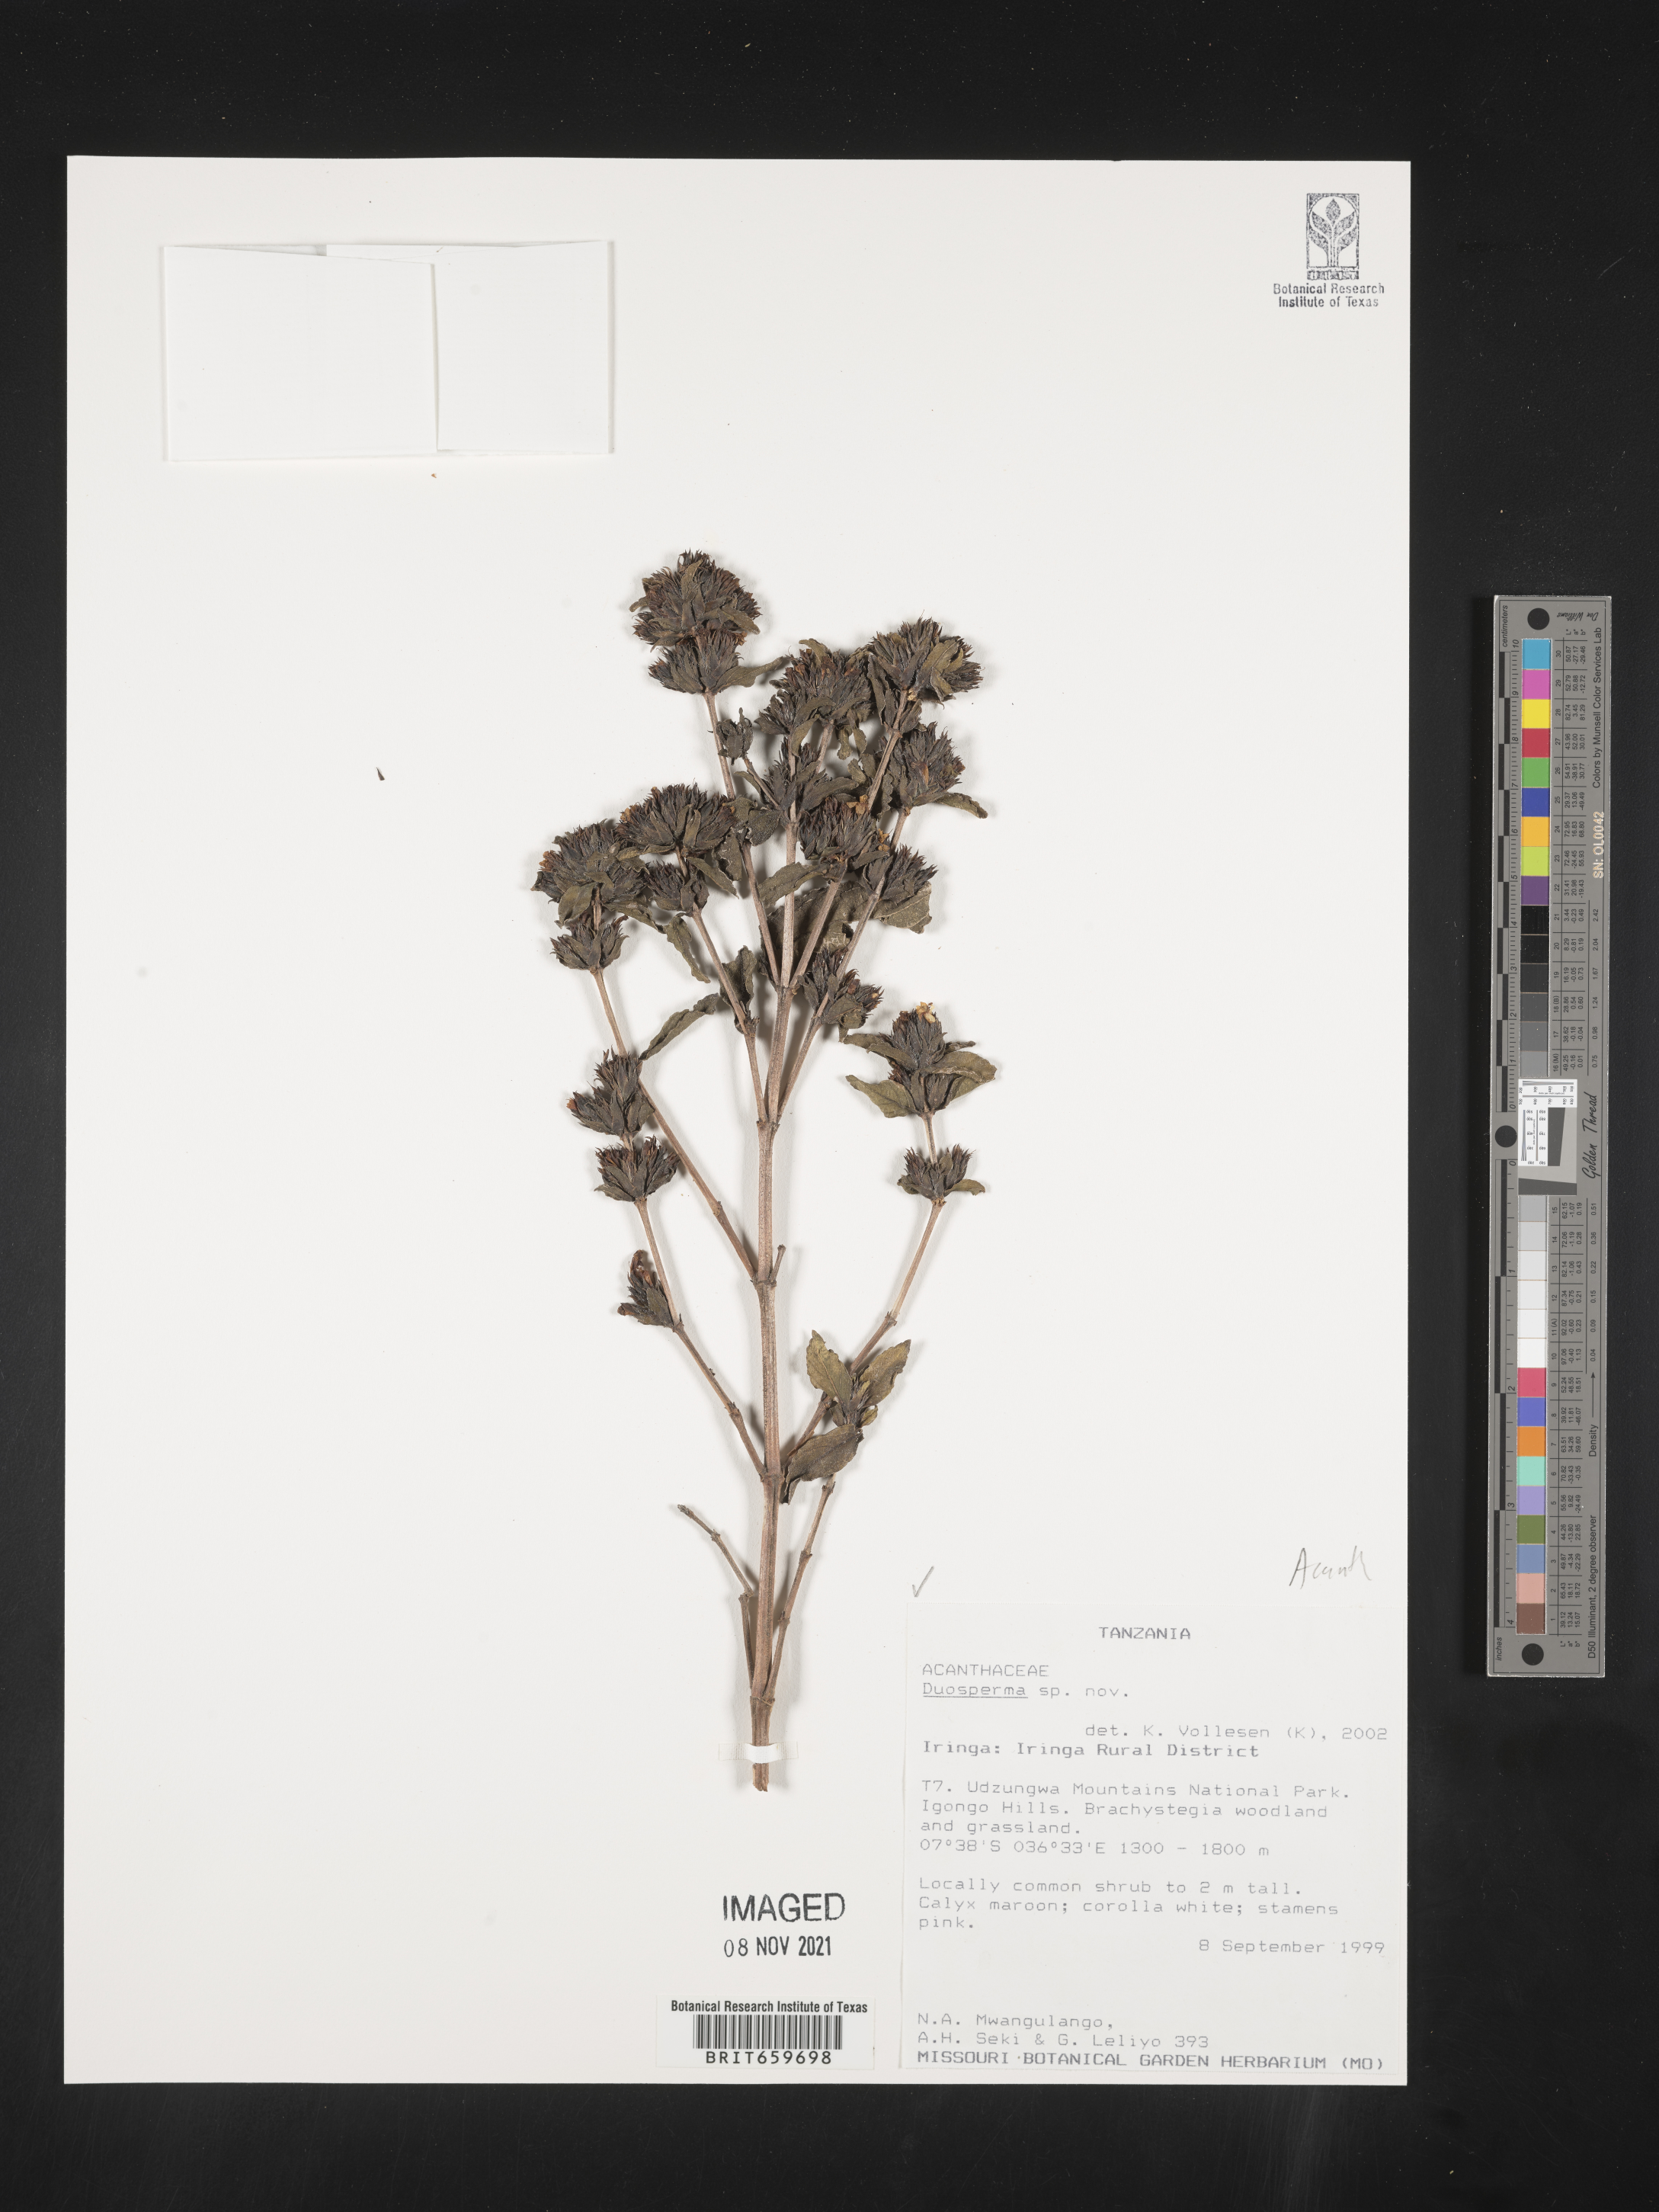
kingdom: Plantae
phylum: Tracheophyta
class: Magnoliopsida
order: Lamiales
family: Acanthaceae
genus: Duosperma
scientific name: Duosperma
